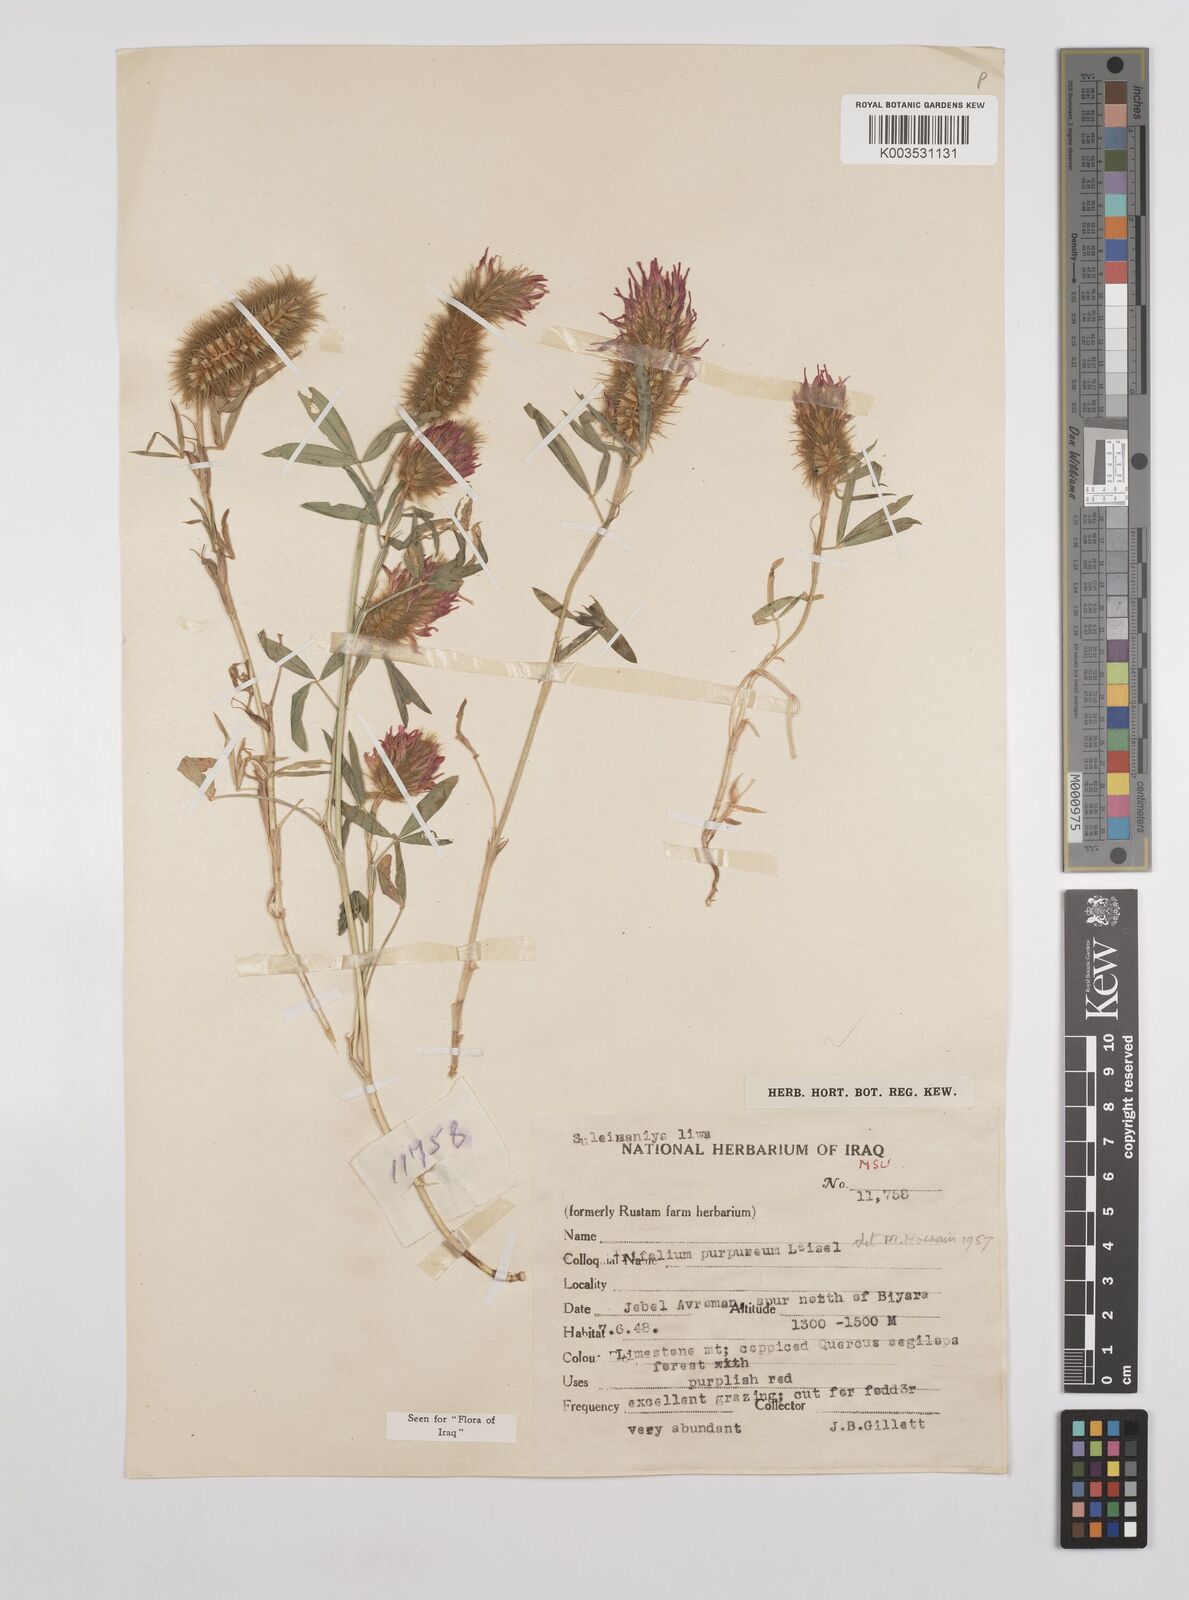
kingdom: Plantae
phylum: Tracheophyta
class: Magnoliopsida
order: Fabales
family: Fabaceae
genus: Trifolium
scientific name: Trifolium purpureum
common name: Purple clover
